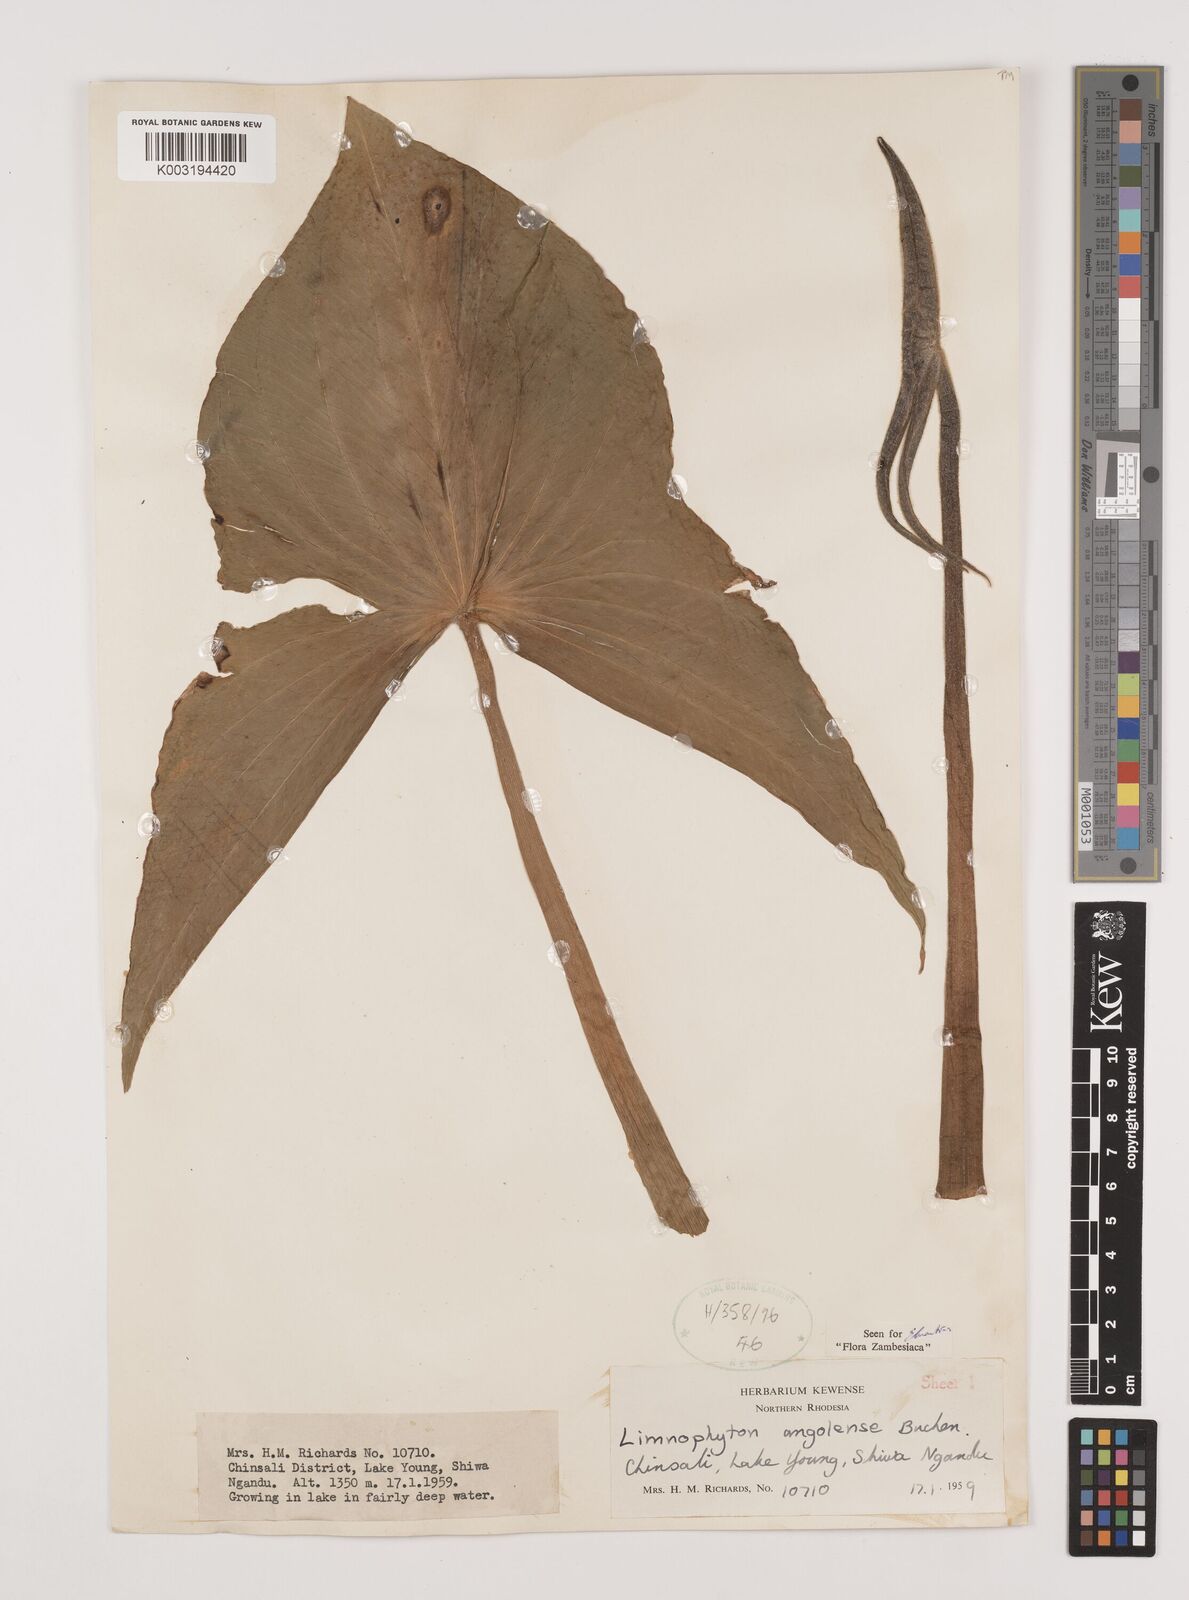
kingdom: Plantae
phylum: Tracheophyta
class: Liliopsida
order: Alismatales
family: Alismataceae
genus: Limnophyton
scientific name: Limnophyton angolense
